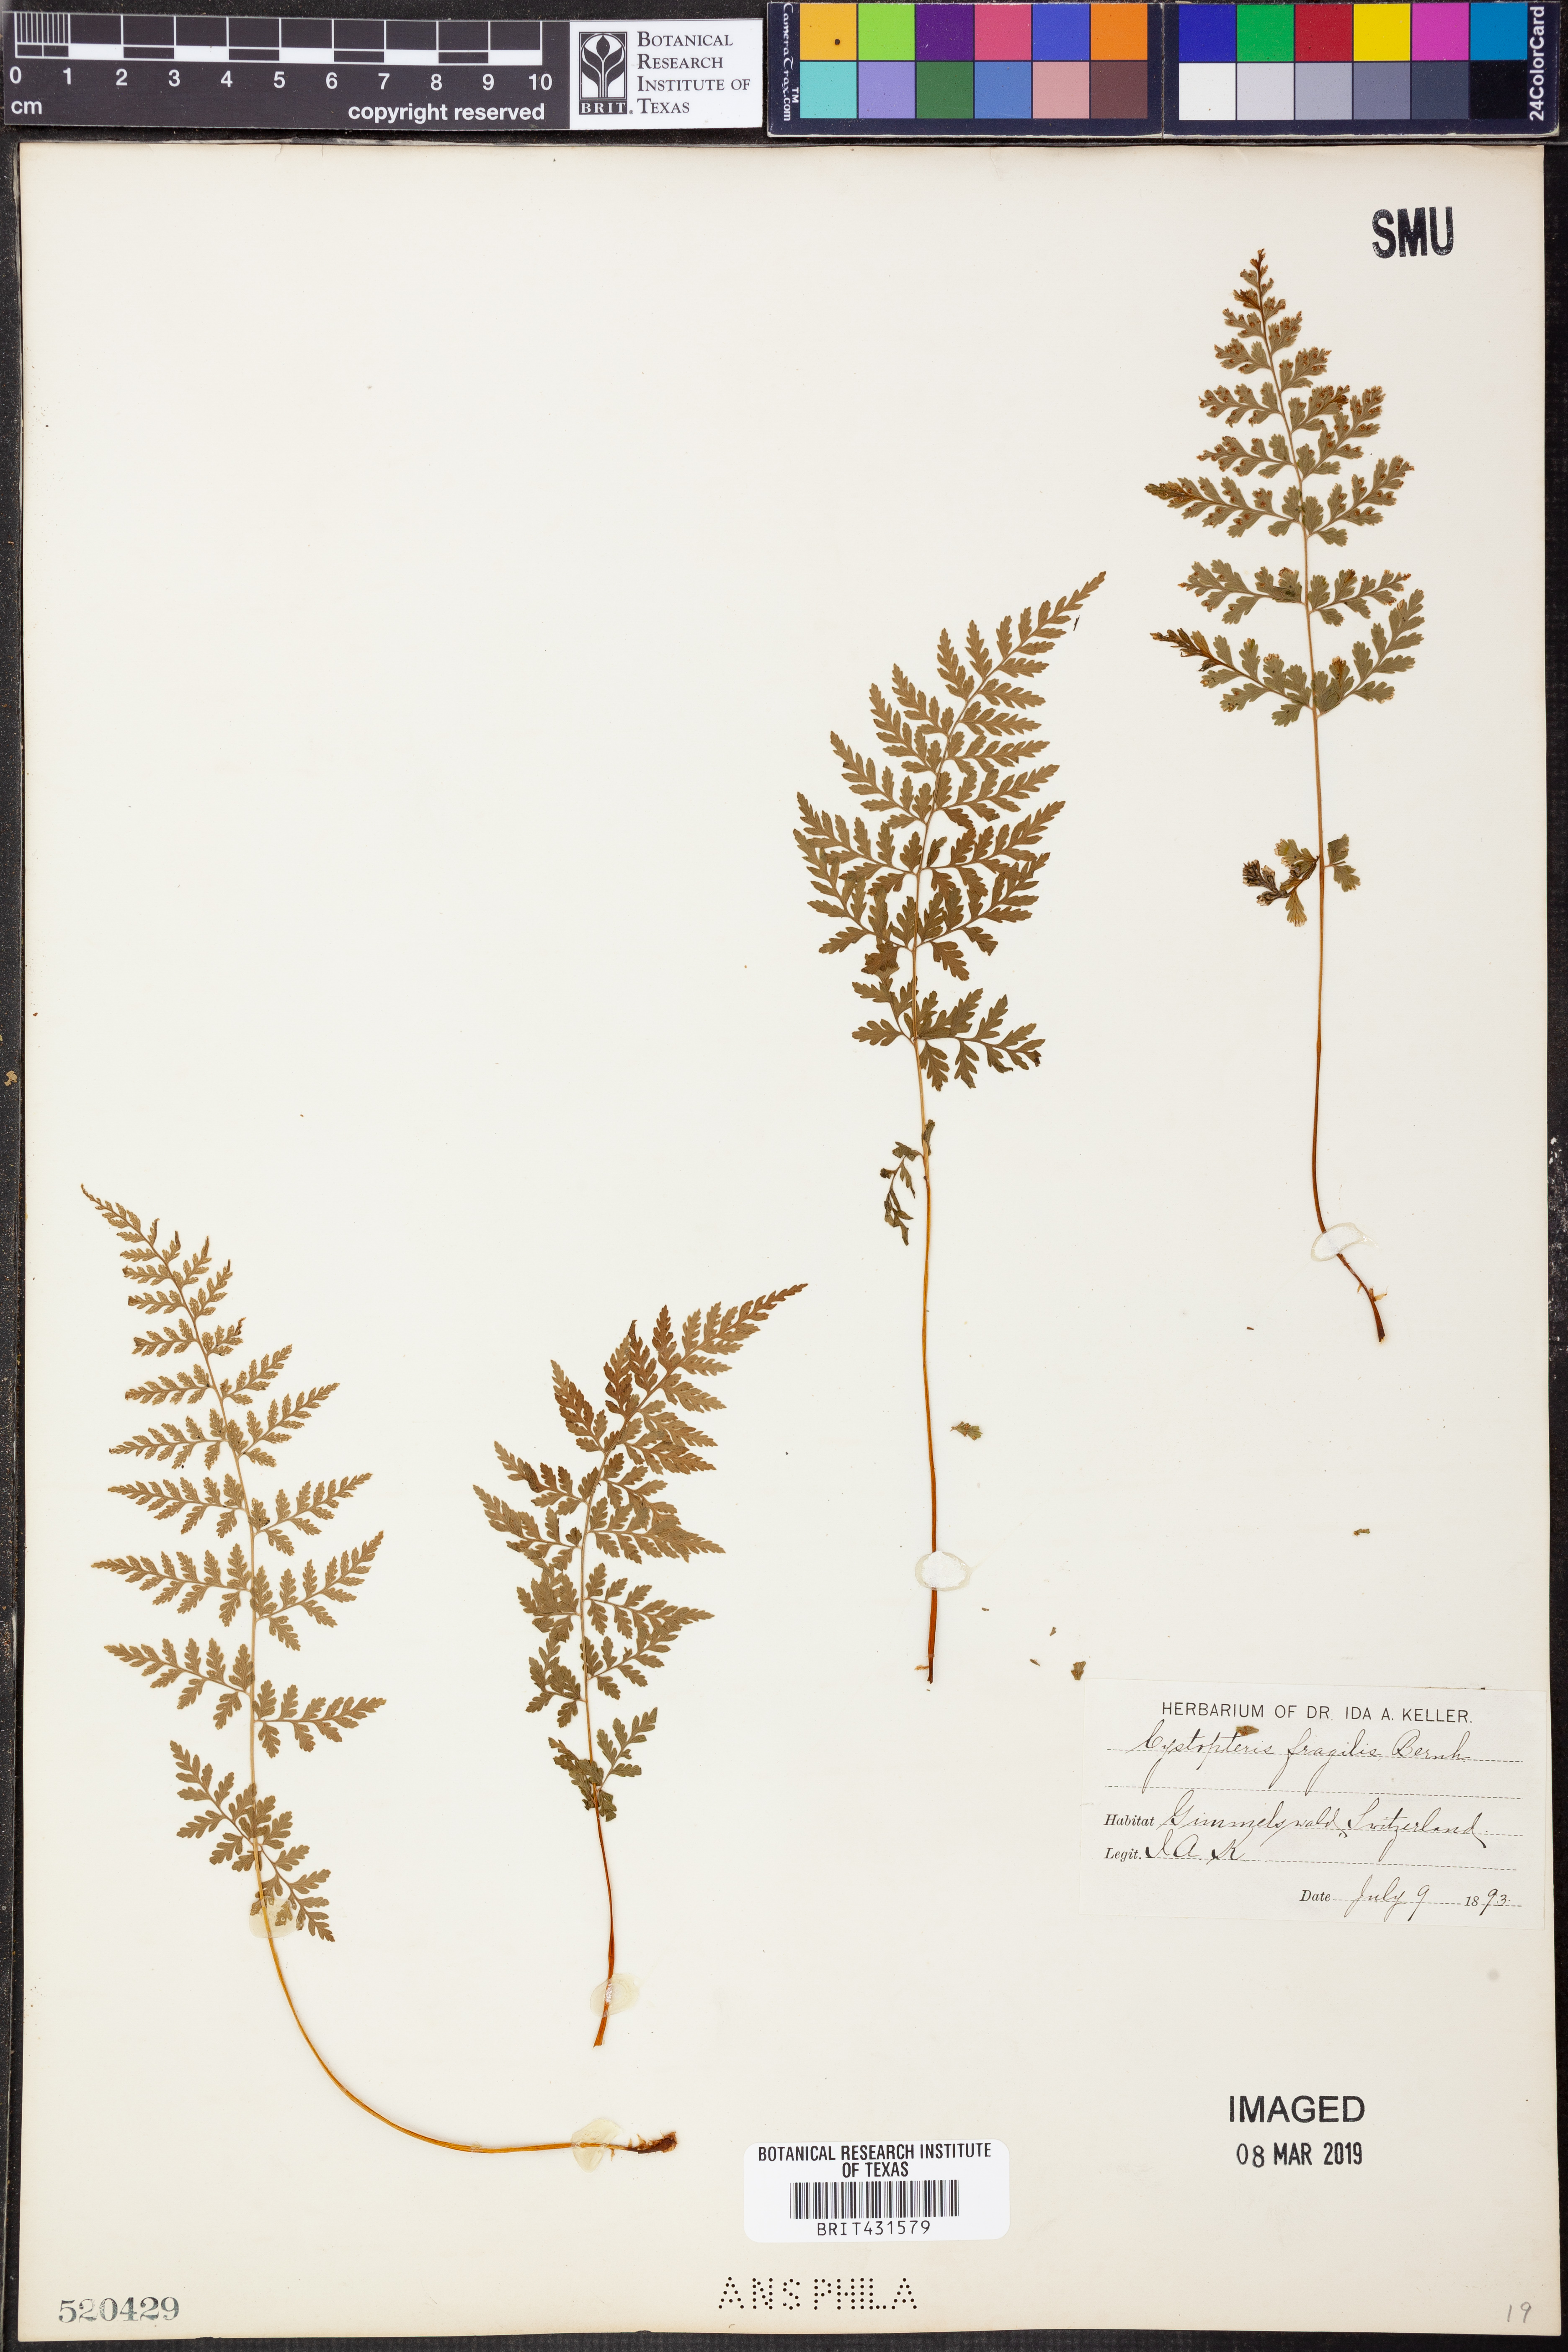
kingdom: Plantae
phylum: Tracheophyta
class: Polypodiopsida
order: Polypodiales
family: Cystopteridaceae
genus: Cystopteris
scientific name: Cystopteris fragilis
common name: Brittle bladder fern
